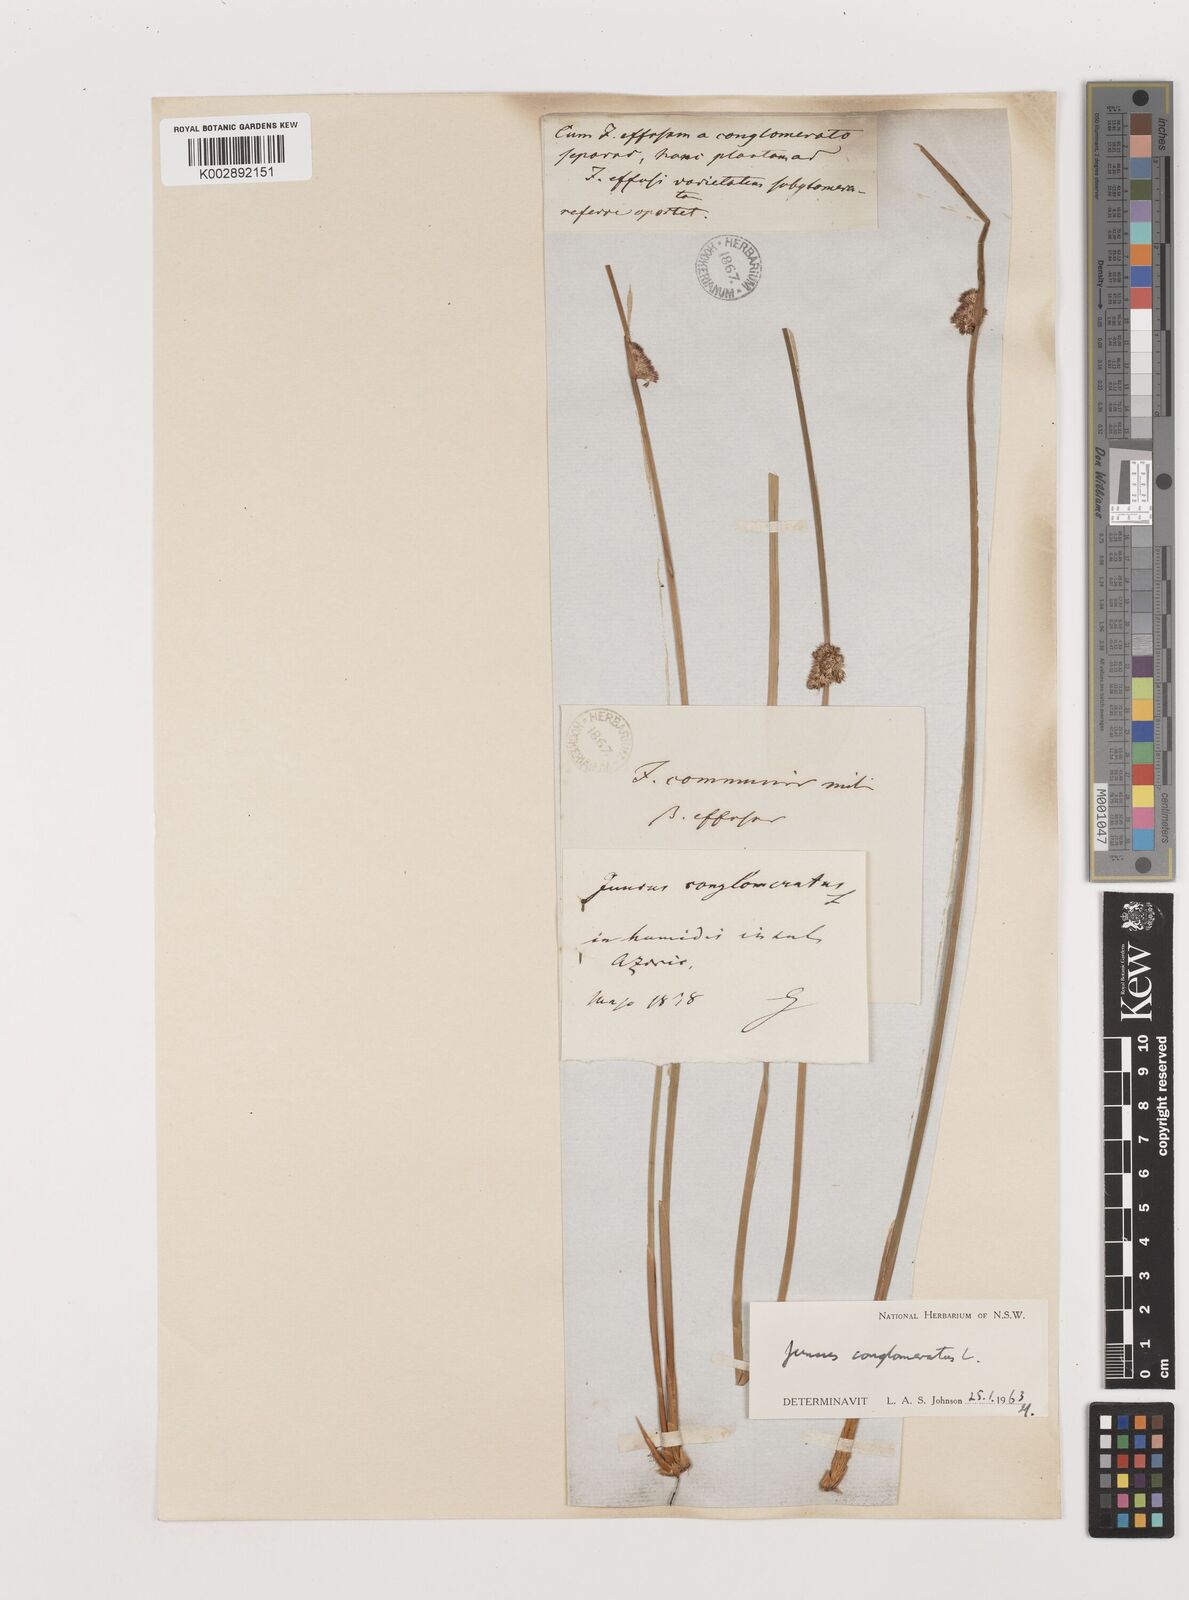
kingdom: Plantae
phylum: Tracheophyta
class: Liliopsida
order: Poales
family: Juncaceae
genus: Juncus
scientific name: Juncus conglomeratus
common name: Compact rush
